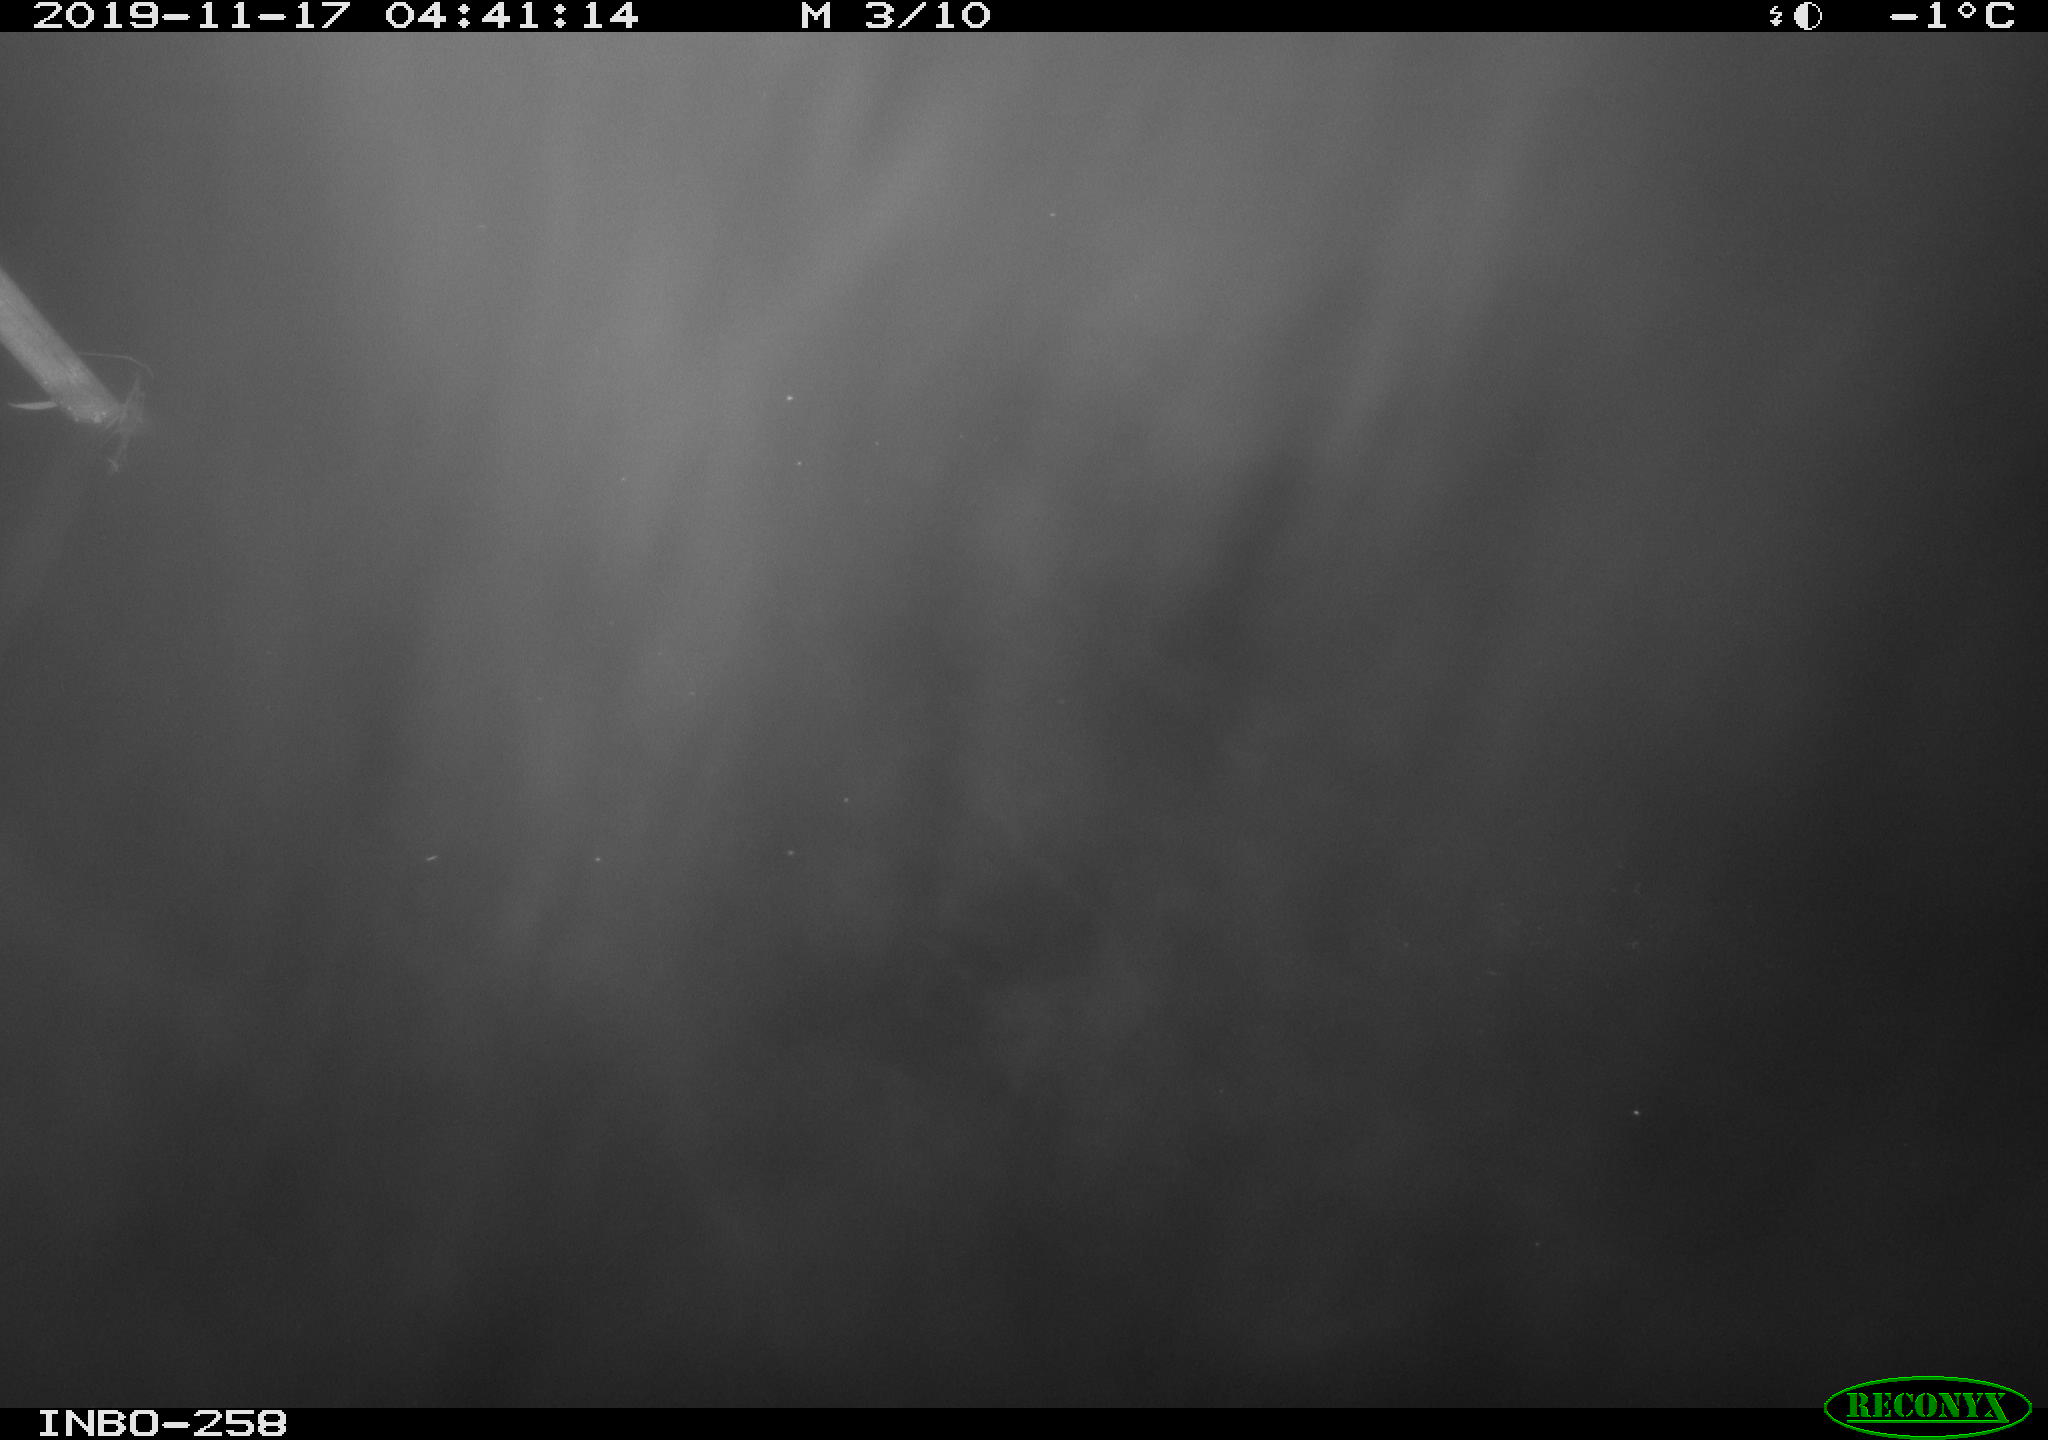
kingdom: Animalia
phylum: Chordata
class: Aves
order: Anseriformes
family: Anatidae
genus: Anas
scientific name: Anas platyrhynchos
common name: Mallard
